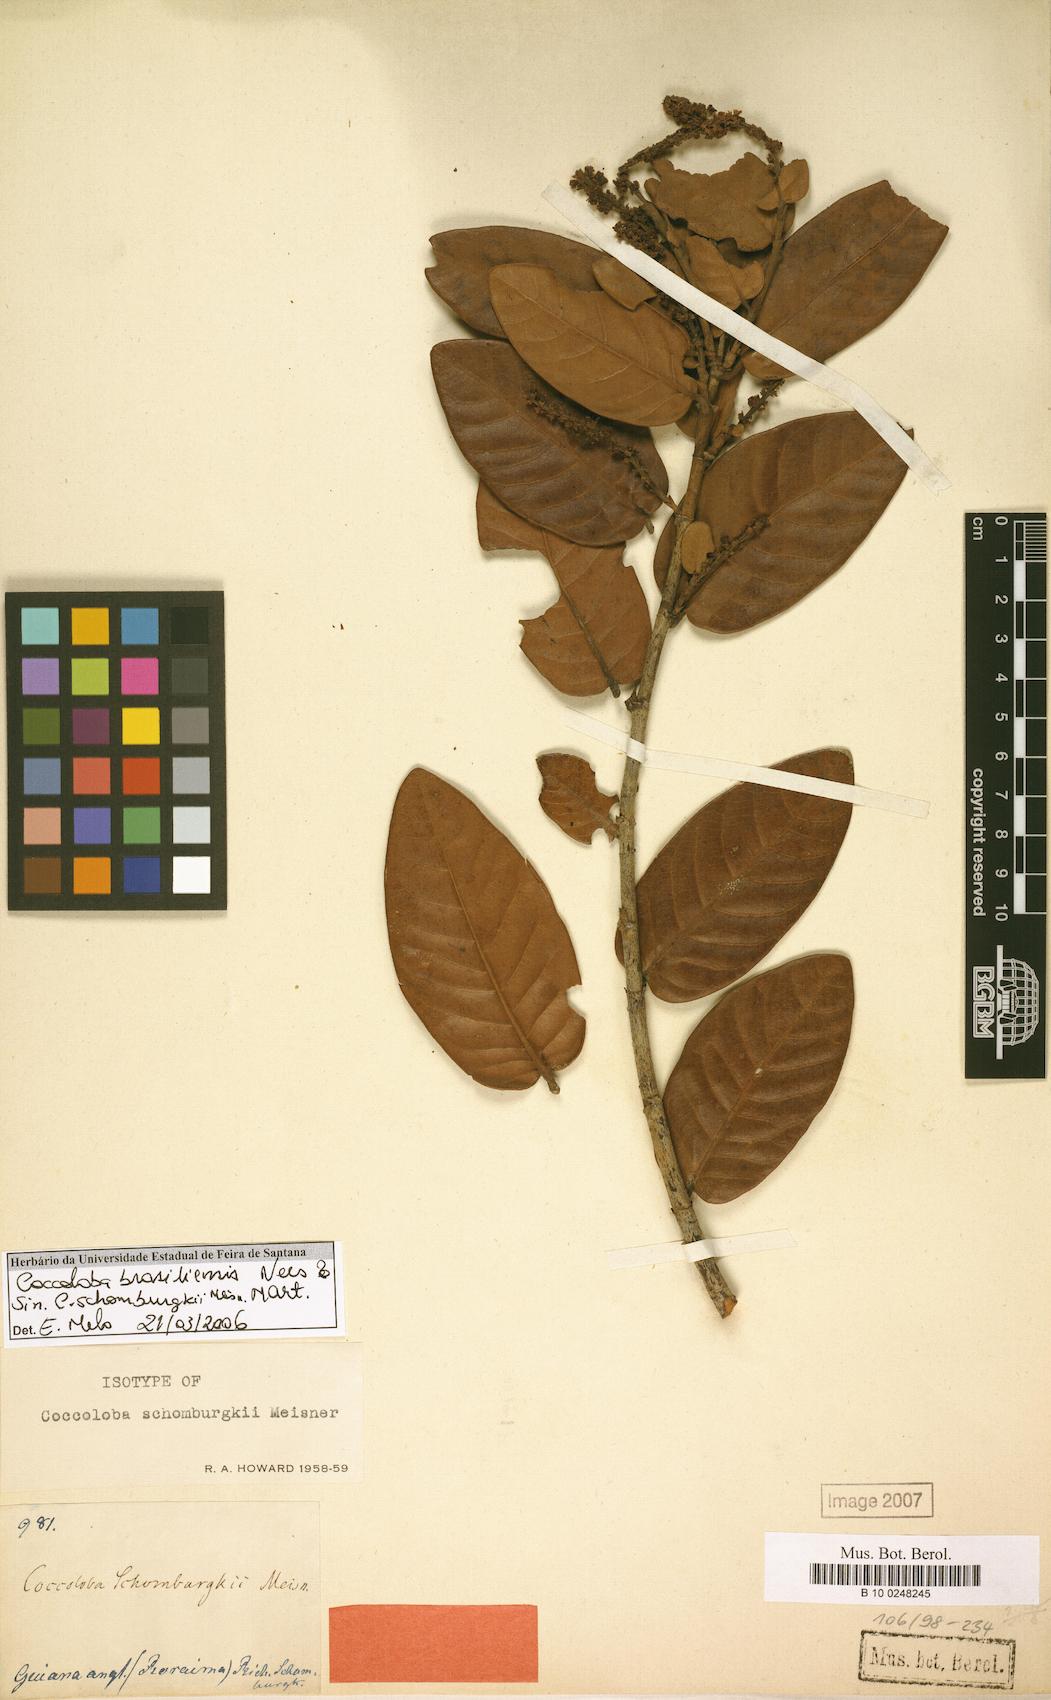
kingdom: Plantae
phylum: Tracheophyta
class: Magnoliopsida
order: Caryophyllales
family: Polygonaceae
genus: Coccoloba
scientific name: Coccoloba brasiliensis
